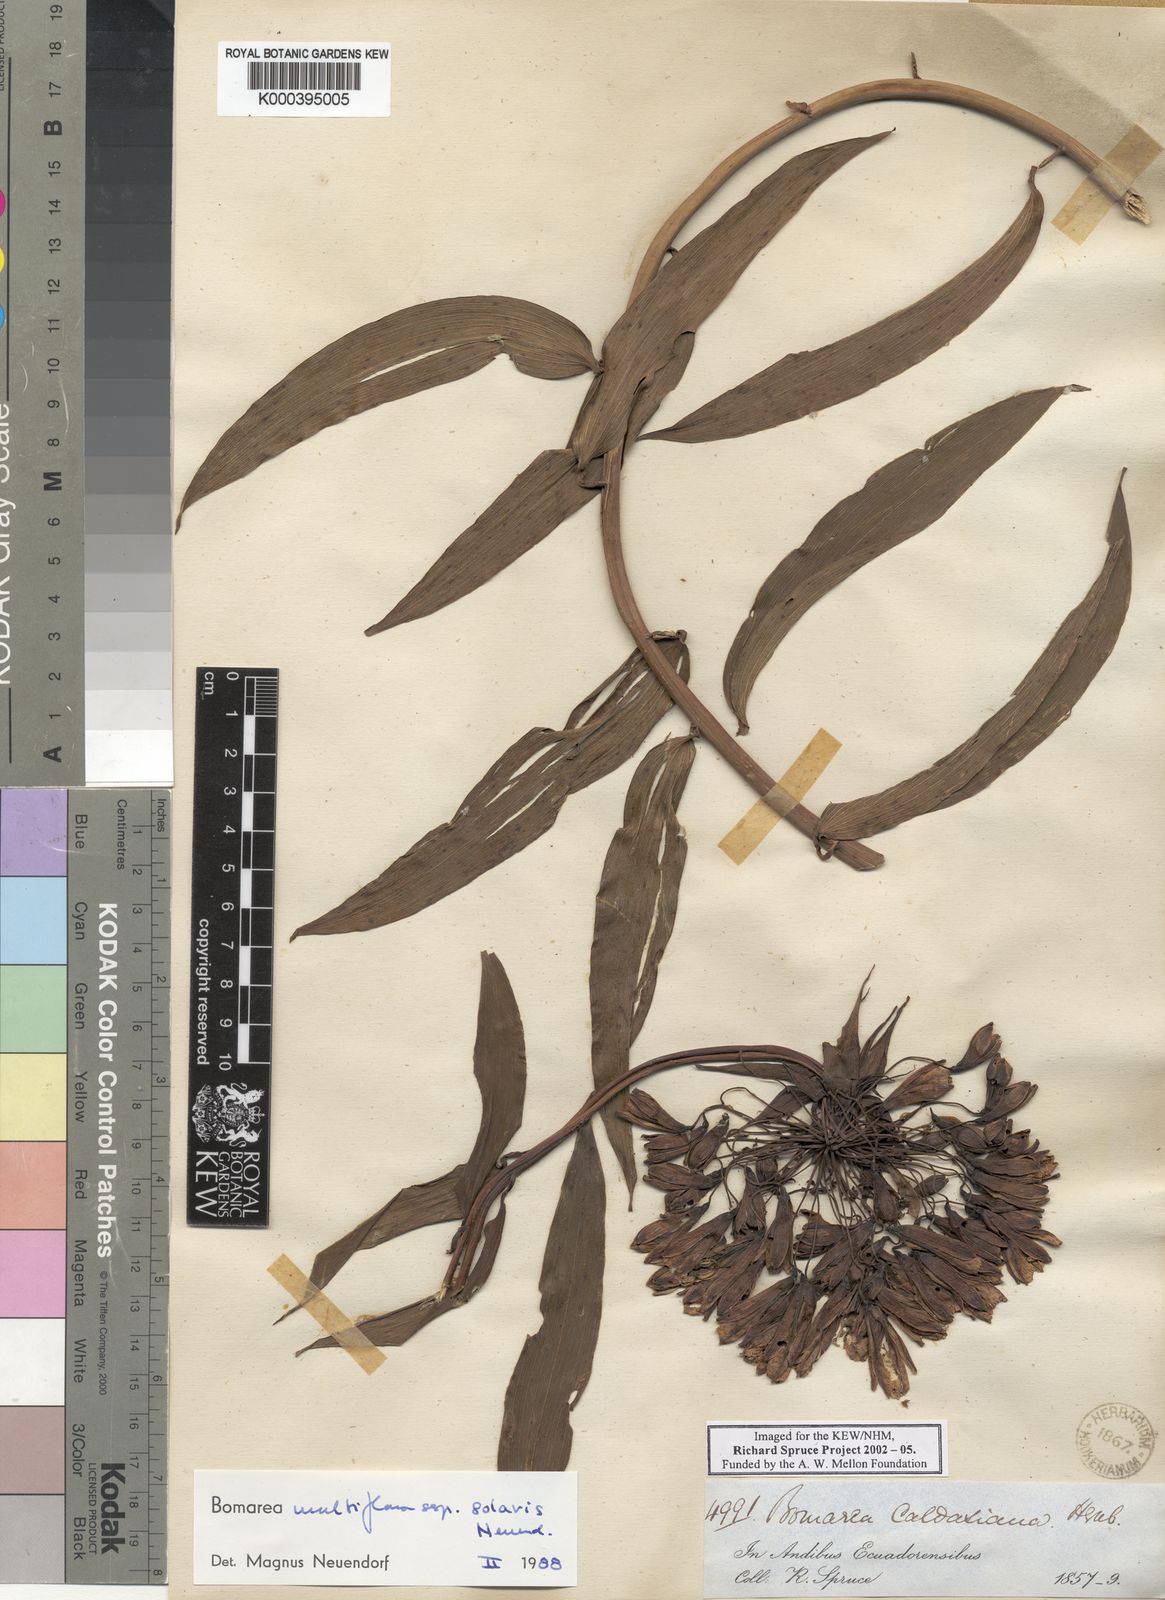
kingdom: Plantae
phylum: Tracheophyta
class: Liliopsida
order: Liliales
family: Alstroemeriaceae
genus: Bomarea
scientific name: Bomarea multiflora
